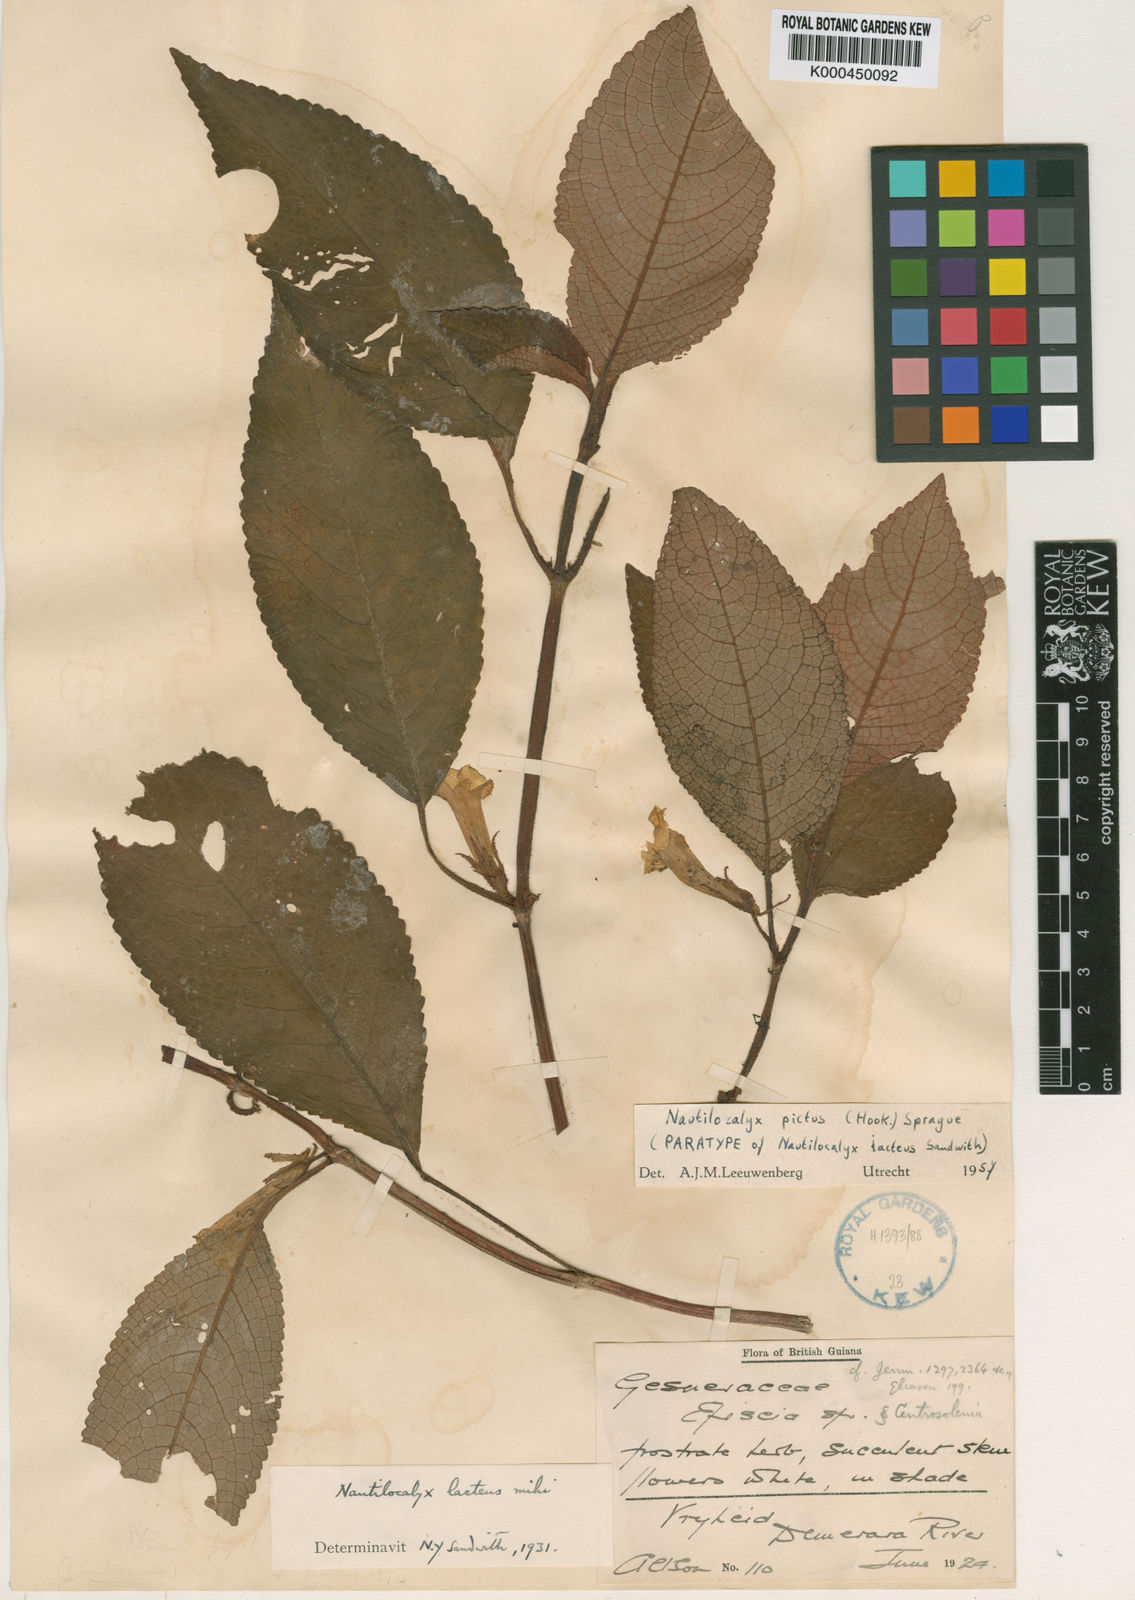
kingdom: Plantae
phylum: Tracheophyta
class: Magnoliopsida
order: Lamiales
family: Gesneriaceae
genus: Centrosolenia
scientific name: Centrosolenia picta
